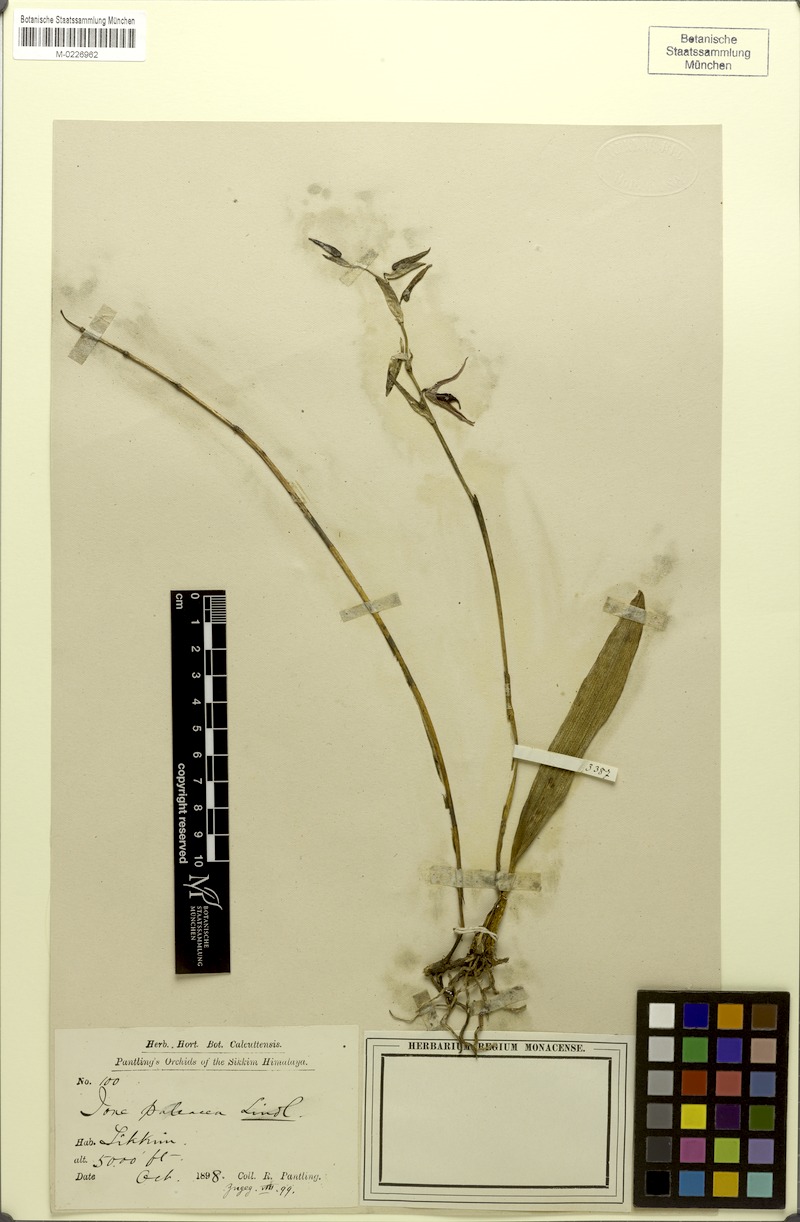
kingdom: Plantae
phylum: Tracheophyta
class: Liliopsida
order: Asparagales
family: Orchidaceae
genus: Bulbophyllum
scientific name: Bulbophyllum purpureofuscum
